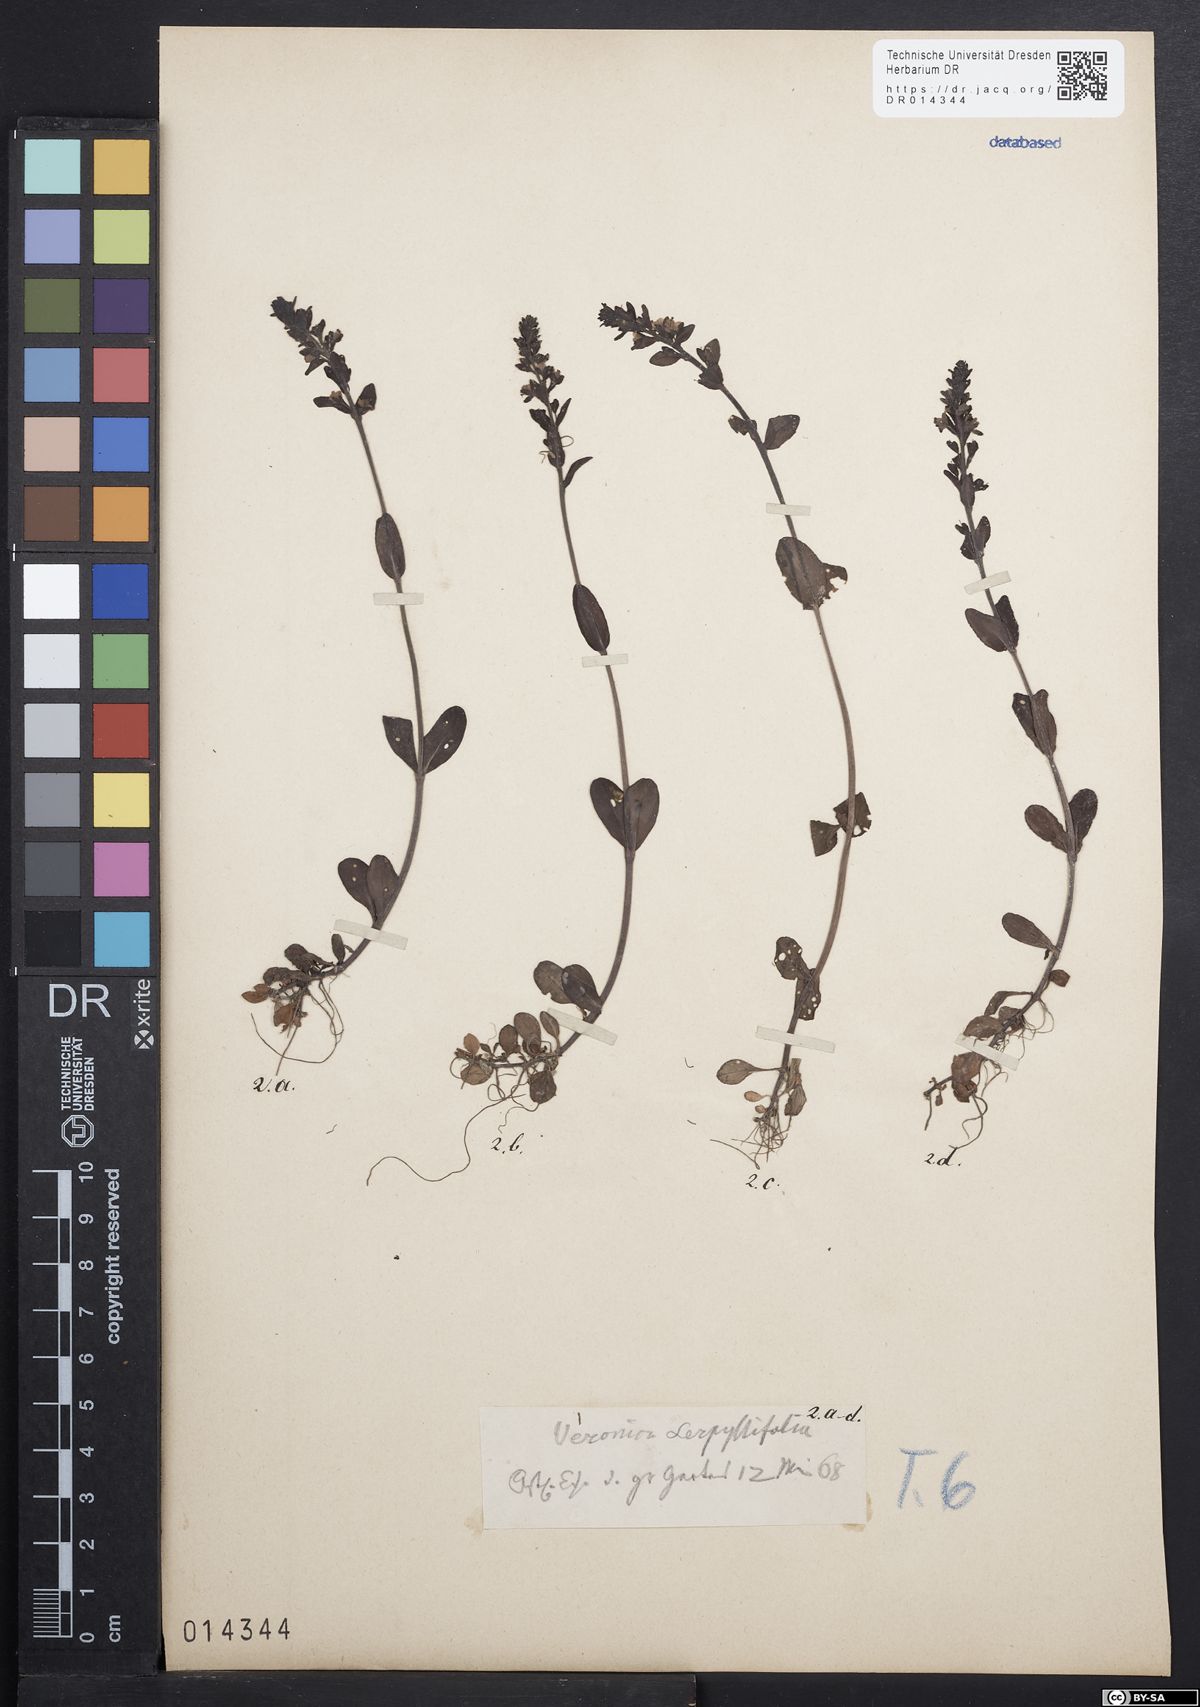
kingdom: Plantae
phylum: Tracheophyta
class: Magnoliopsida
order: Lamiales
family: Plantaginaceae
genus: Veronica
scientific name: Veronica serpyllifolia
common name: Thyme-leaved speedwell
